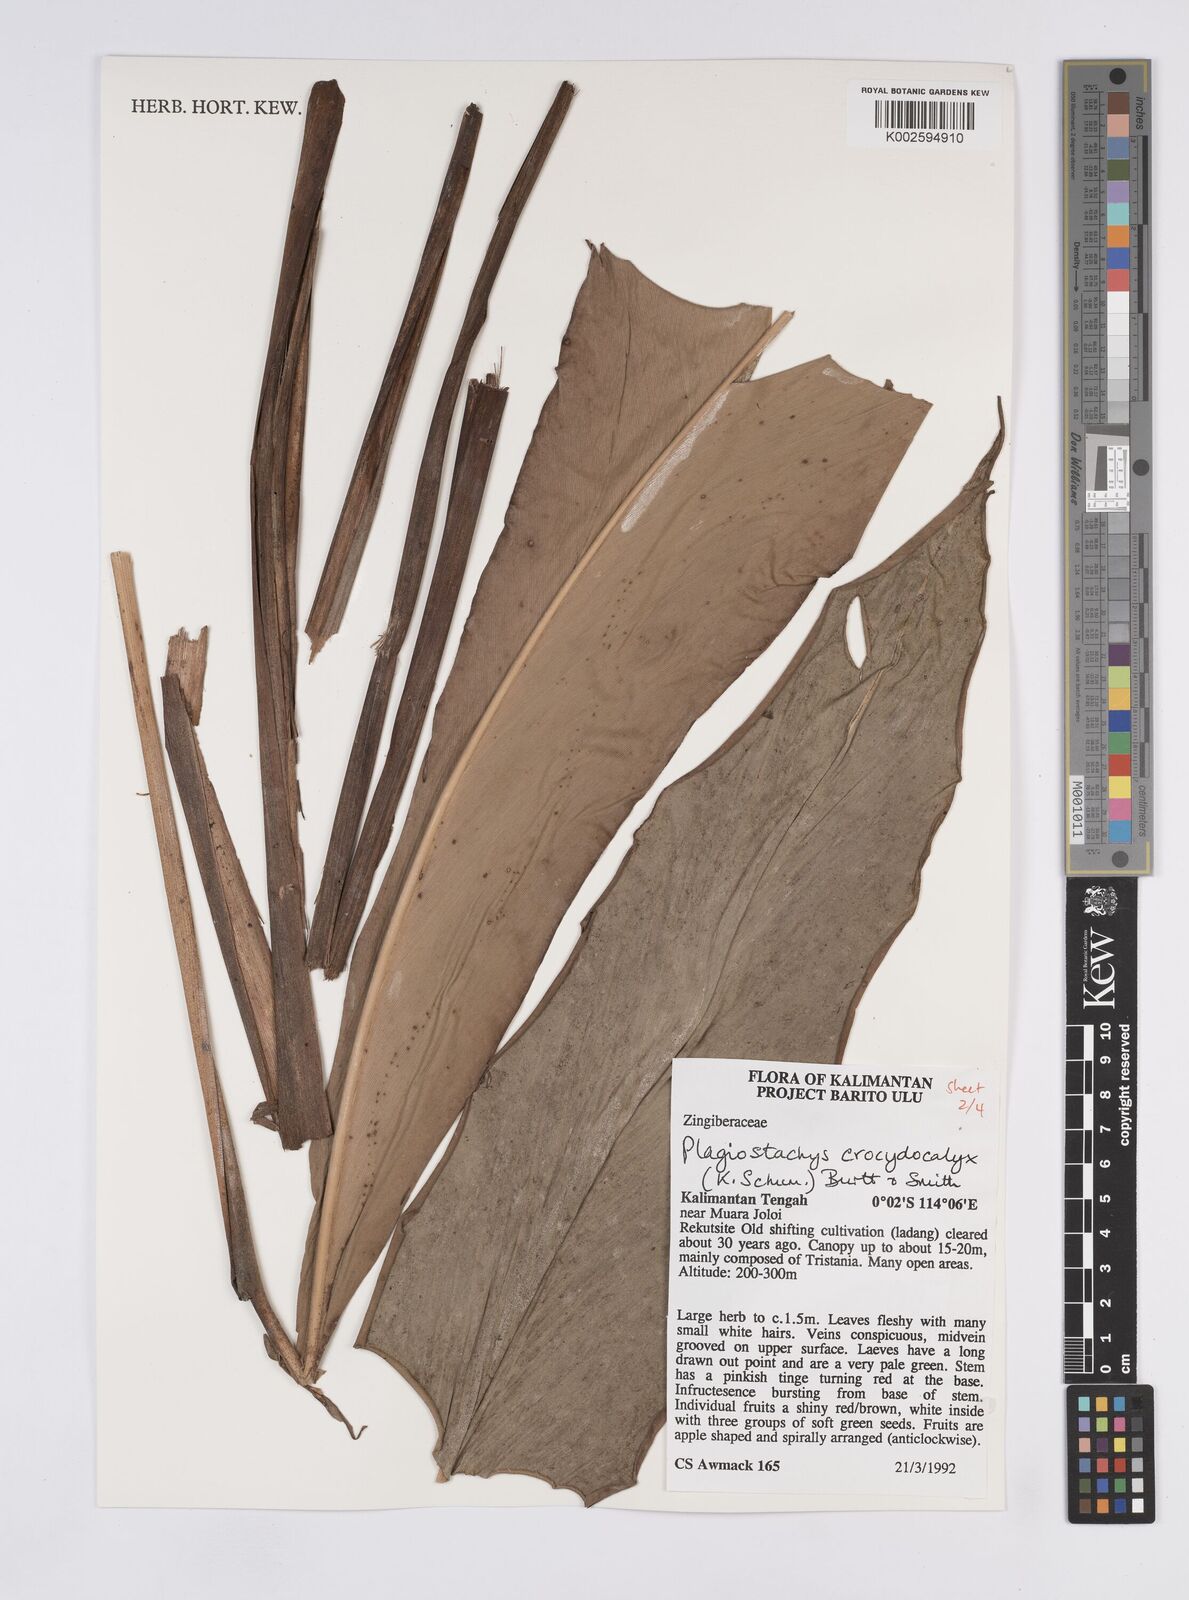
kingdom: Plantae
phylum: Tracheophyta
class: Liliopsida
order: Zingiberales
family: Zingiberaceae
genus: Plagiostachys
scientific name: Plagiostachys crocydocalyx
